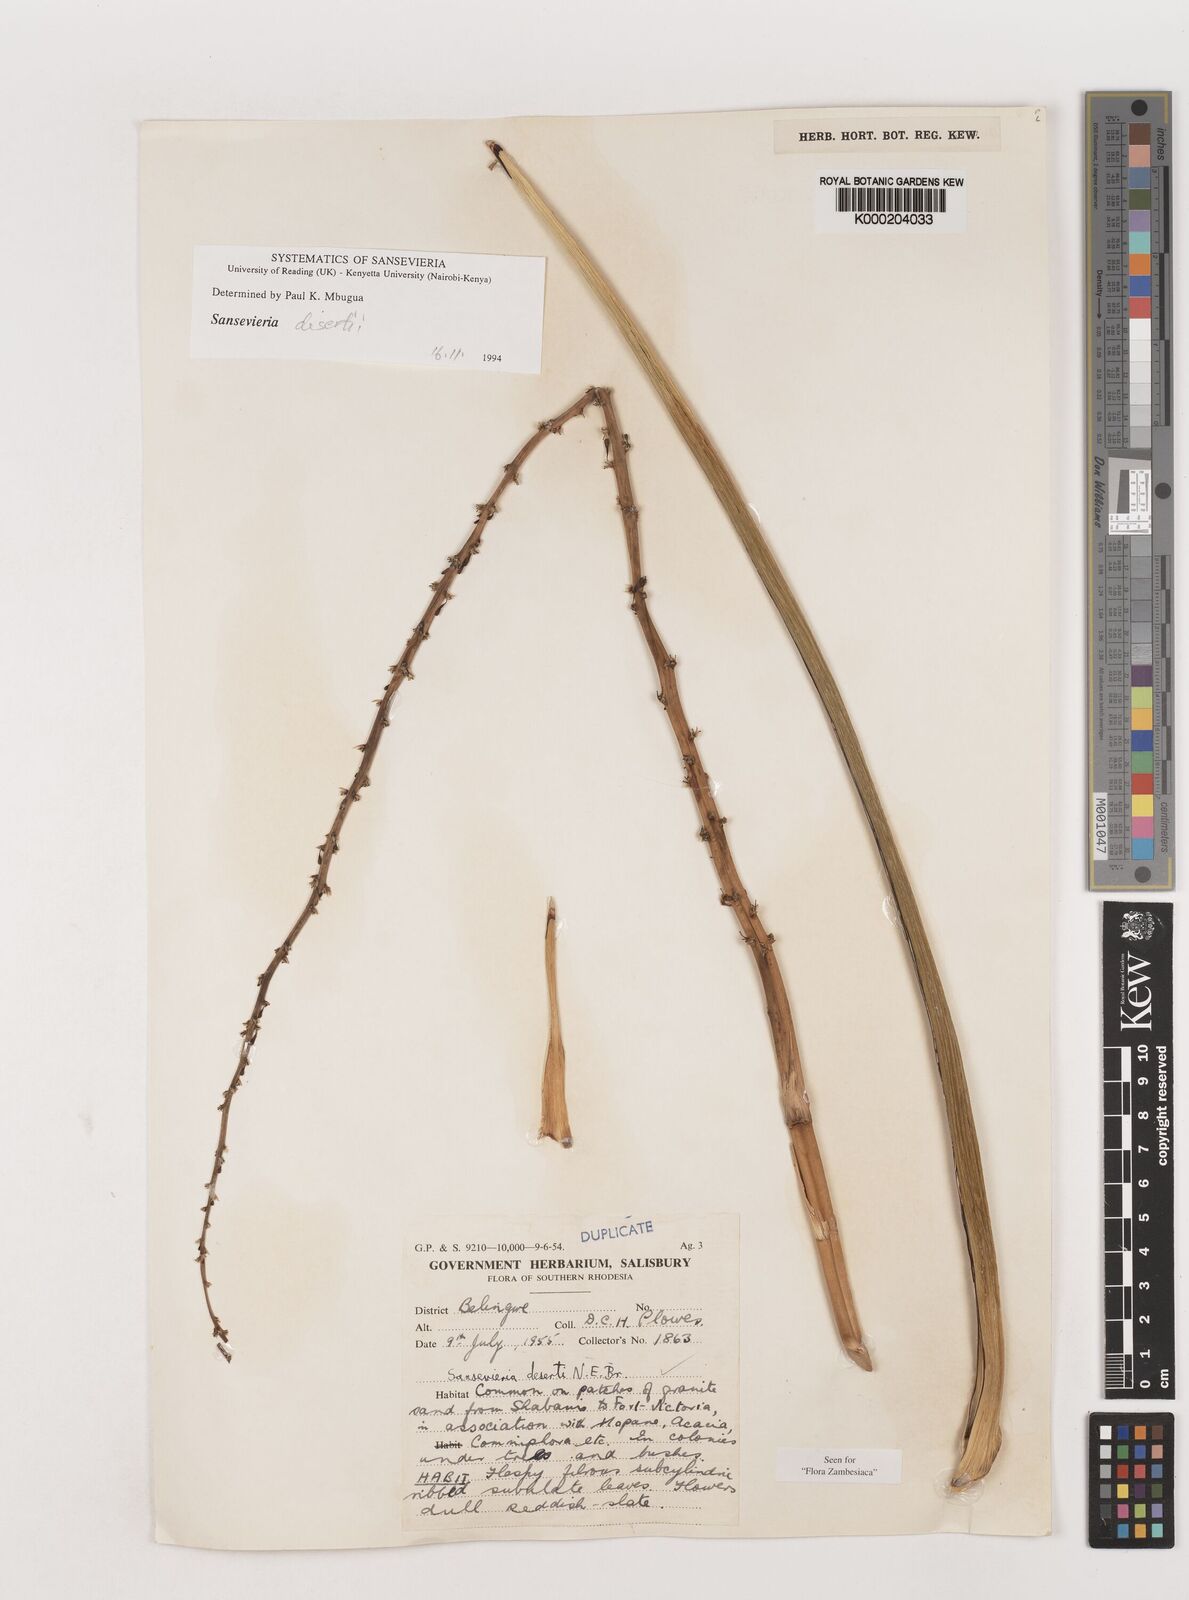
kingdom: Plantae
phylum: Tracheophyta
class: Liliopsida
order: Asparagales
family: Asparagaceae
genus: Dracaena
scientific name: Dracaena pearsonii
